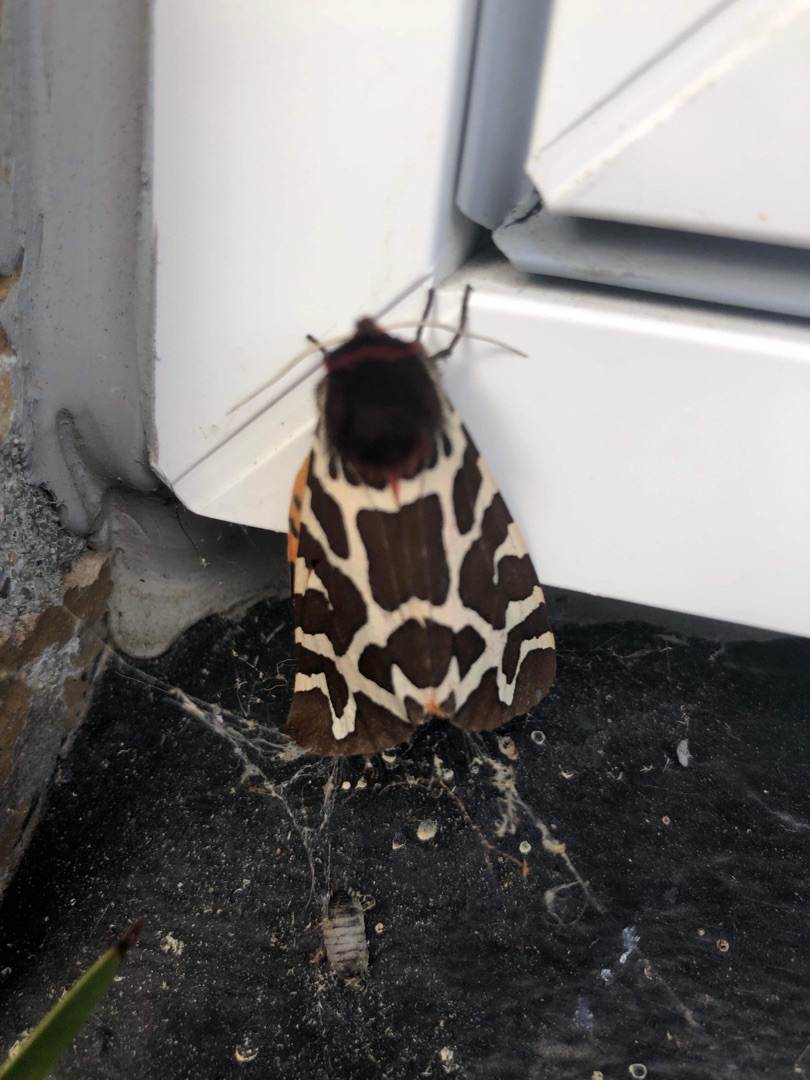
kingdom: Animalia
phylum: Arthropoda
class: Insecta
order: Lepidoptera
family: Erebidae
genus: Arctia
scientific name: Arctia caja
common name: Brun bjørn
